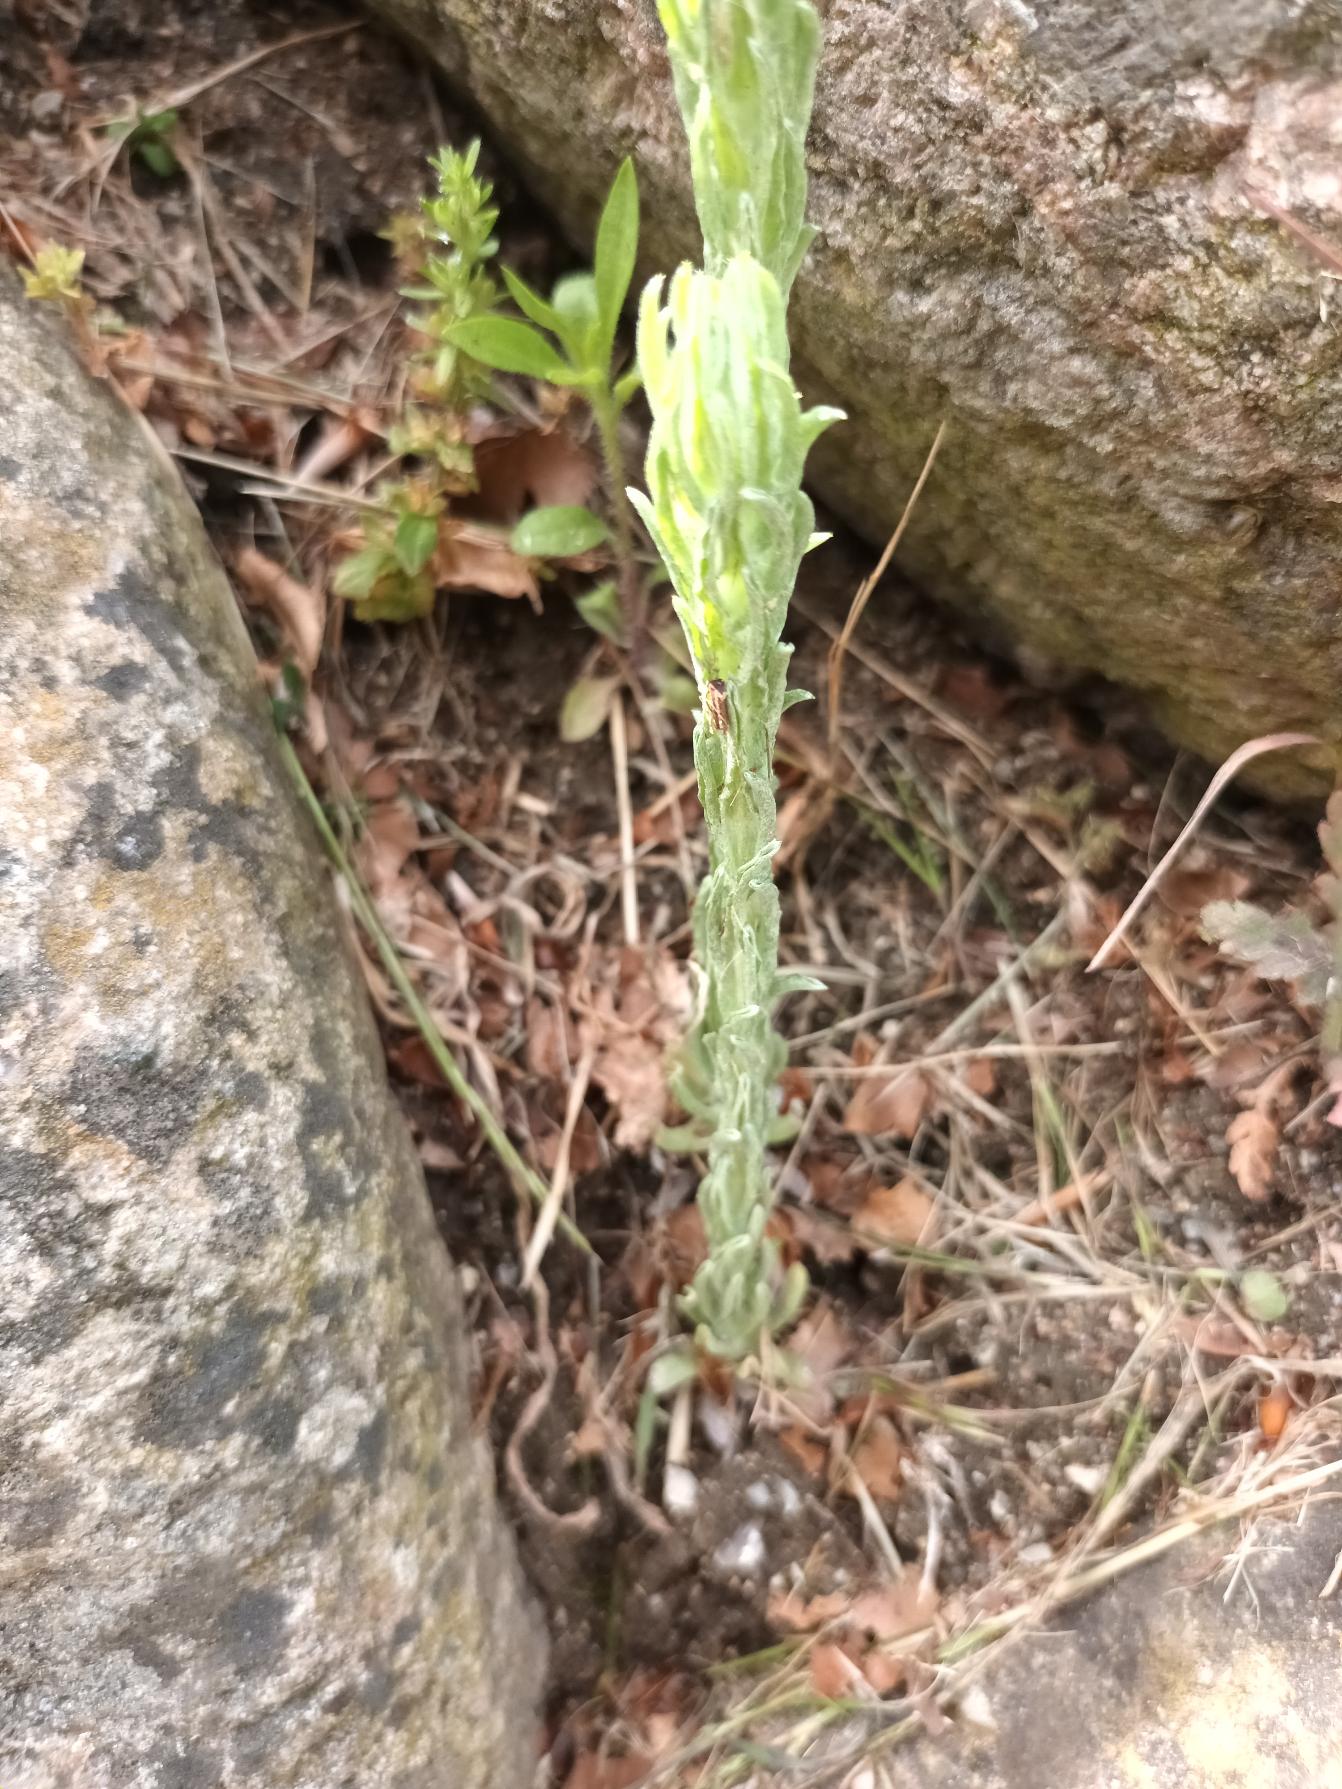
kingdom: Plantae
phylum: Tracheophyta
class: Magnoliopsida
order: Asterales
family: Asteraceae
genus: Filago
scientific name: Filago germanica
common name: Kugle-museurt
